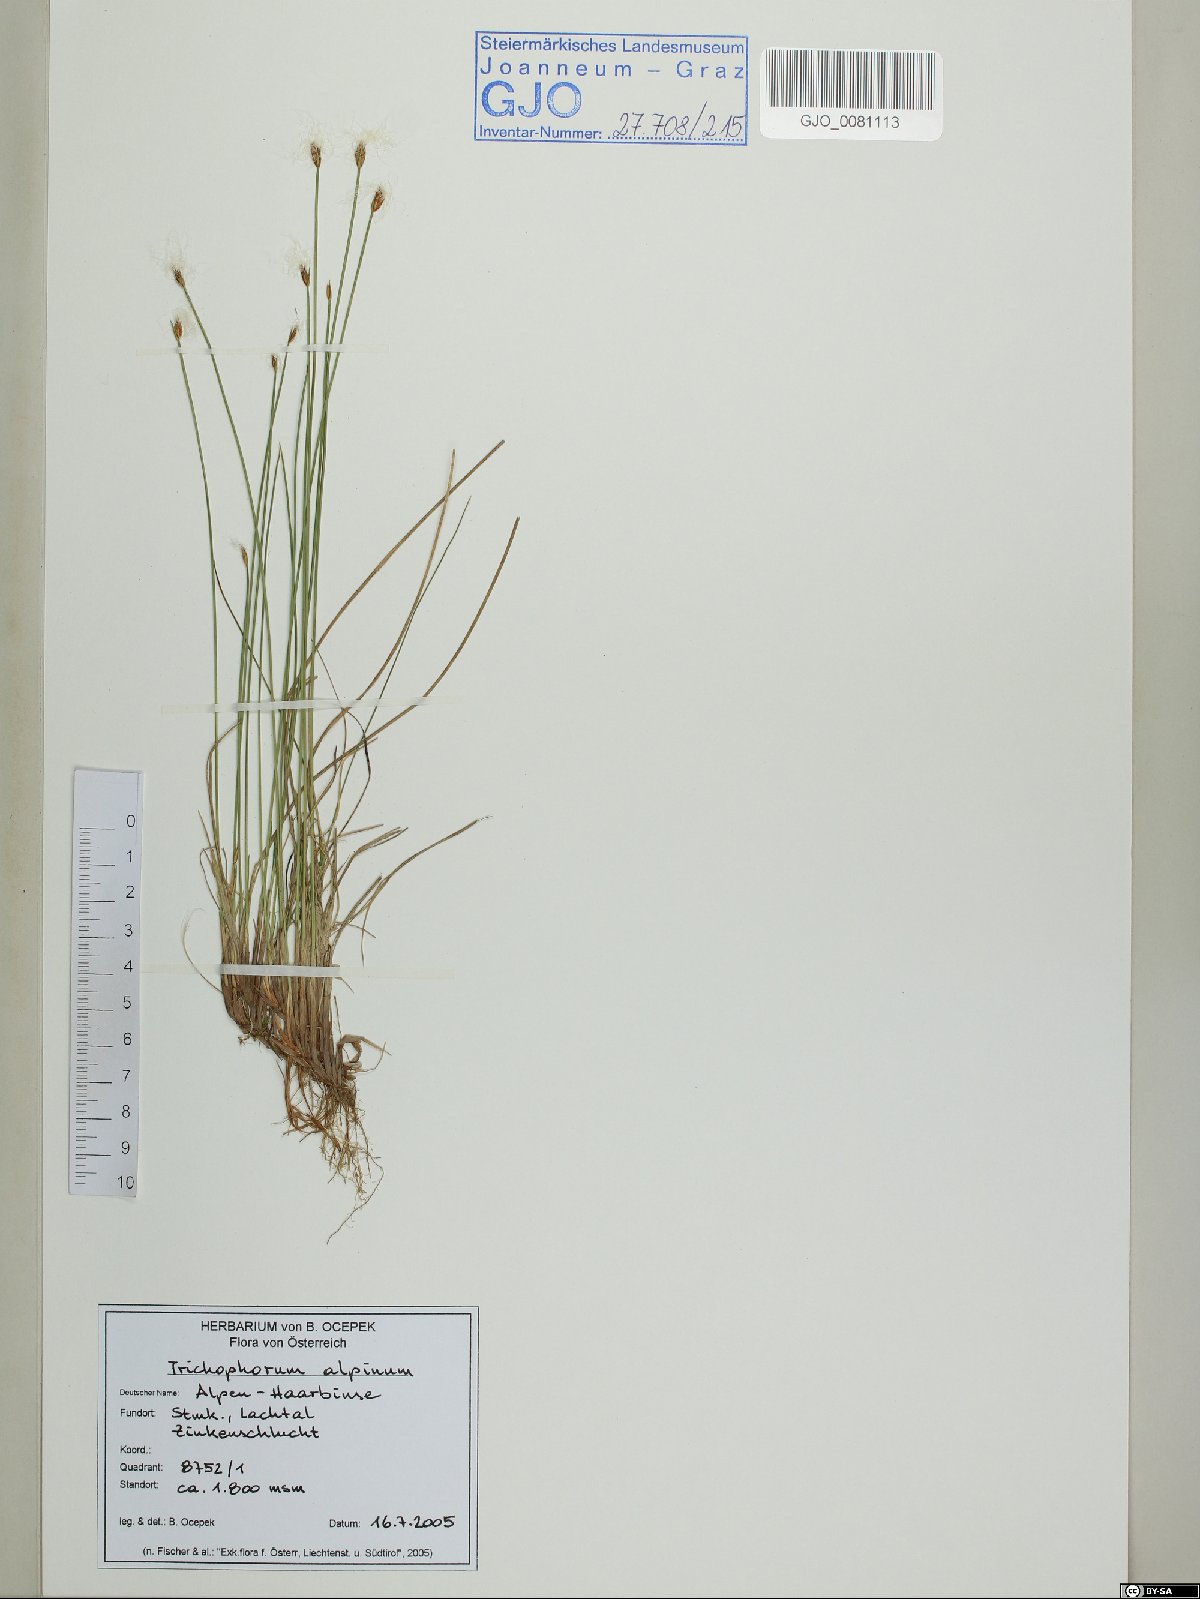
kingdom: Plantae
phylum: Tracheophyta
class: Liliopsida
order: Poales
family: Cyperaceae
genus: Trichophorum
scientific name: Trichophorum alpinum
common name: Alpine bulrush
